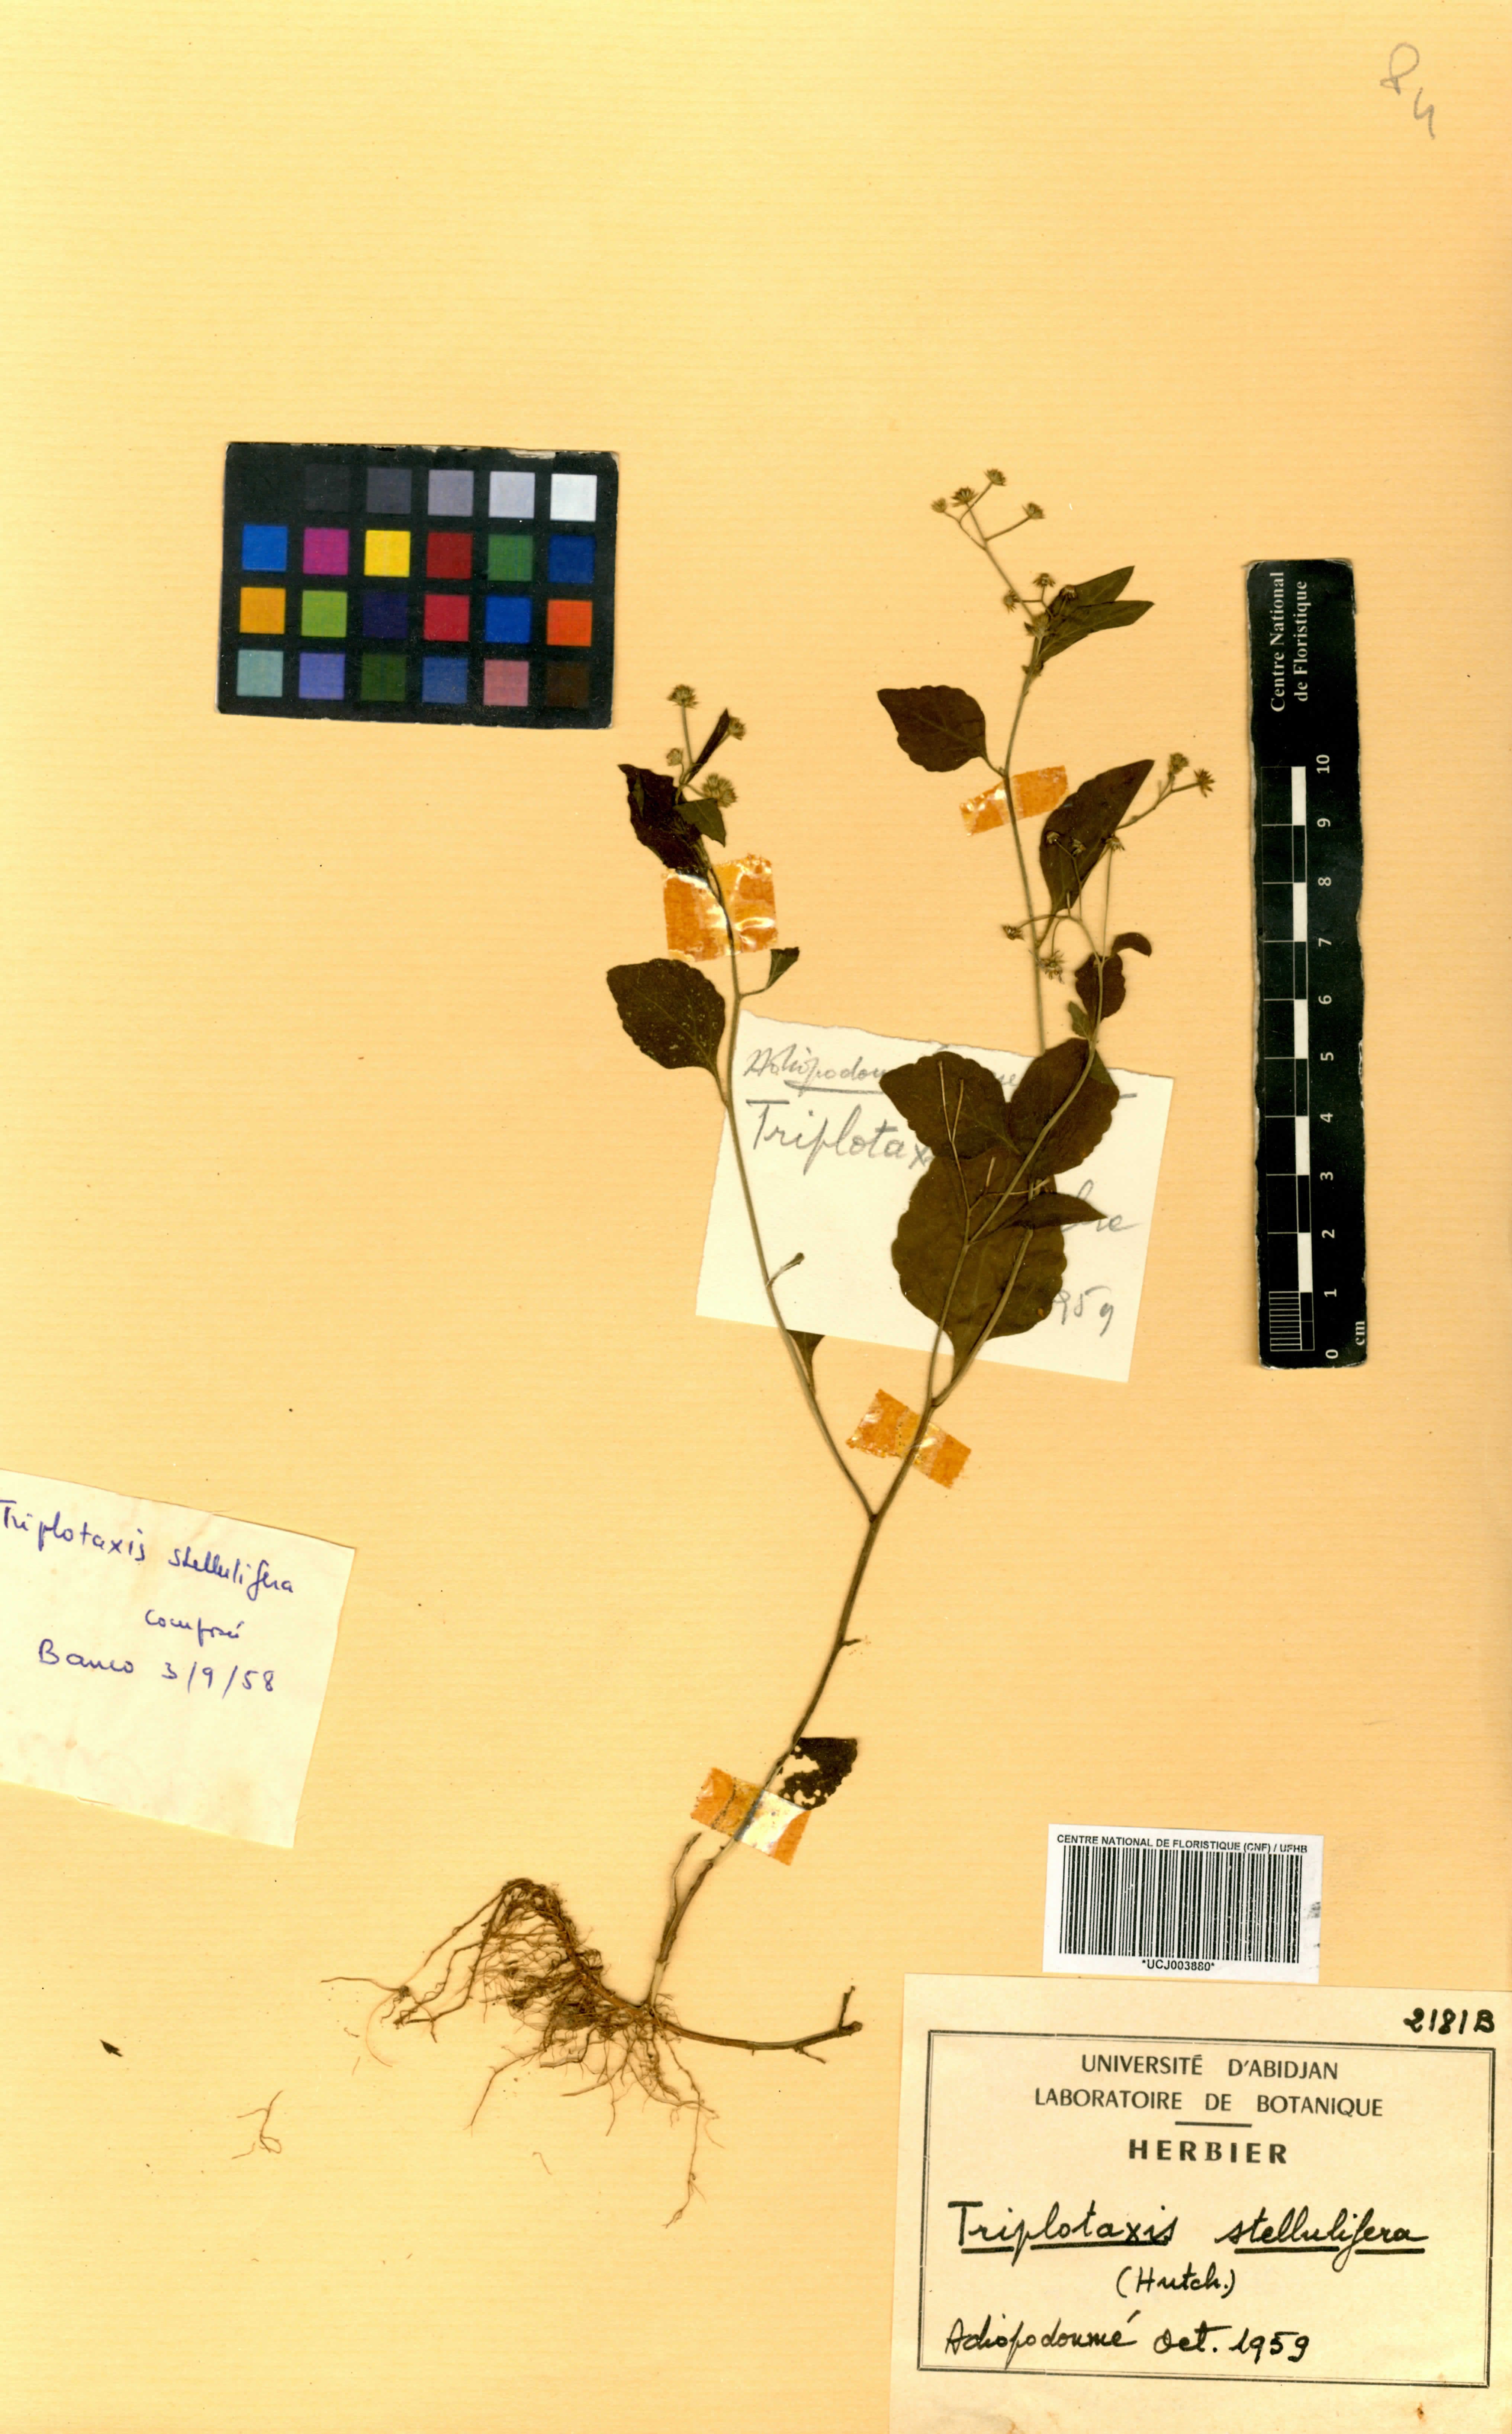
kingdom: Plantae
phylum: Tracheophyta
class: Magnoliopsida
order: Asterales
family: Asteraceae
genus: Cyanthillium
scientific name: Cyanthillium stelluliferum
